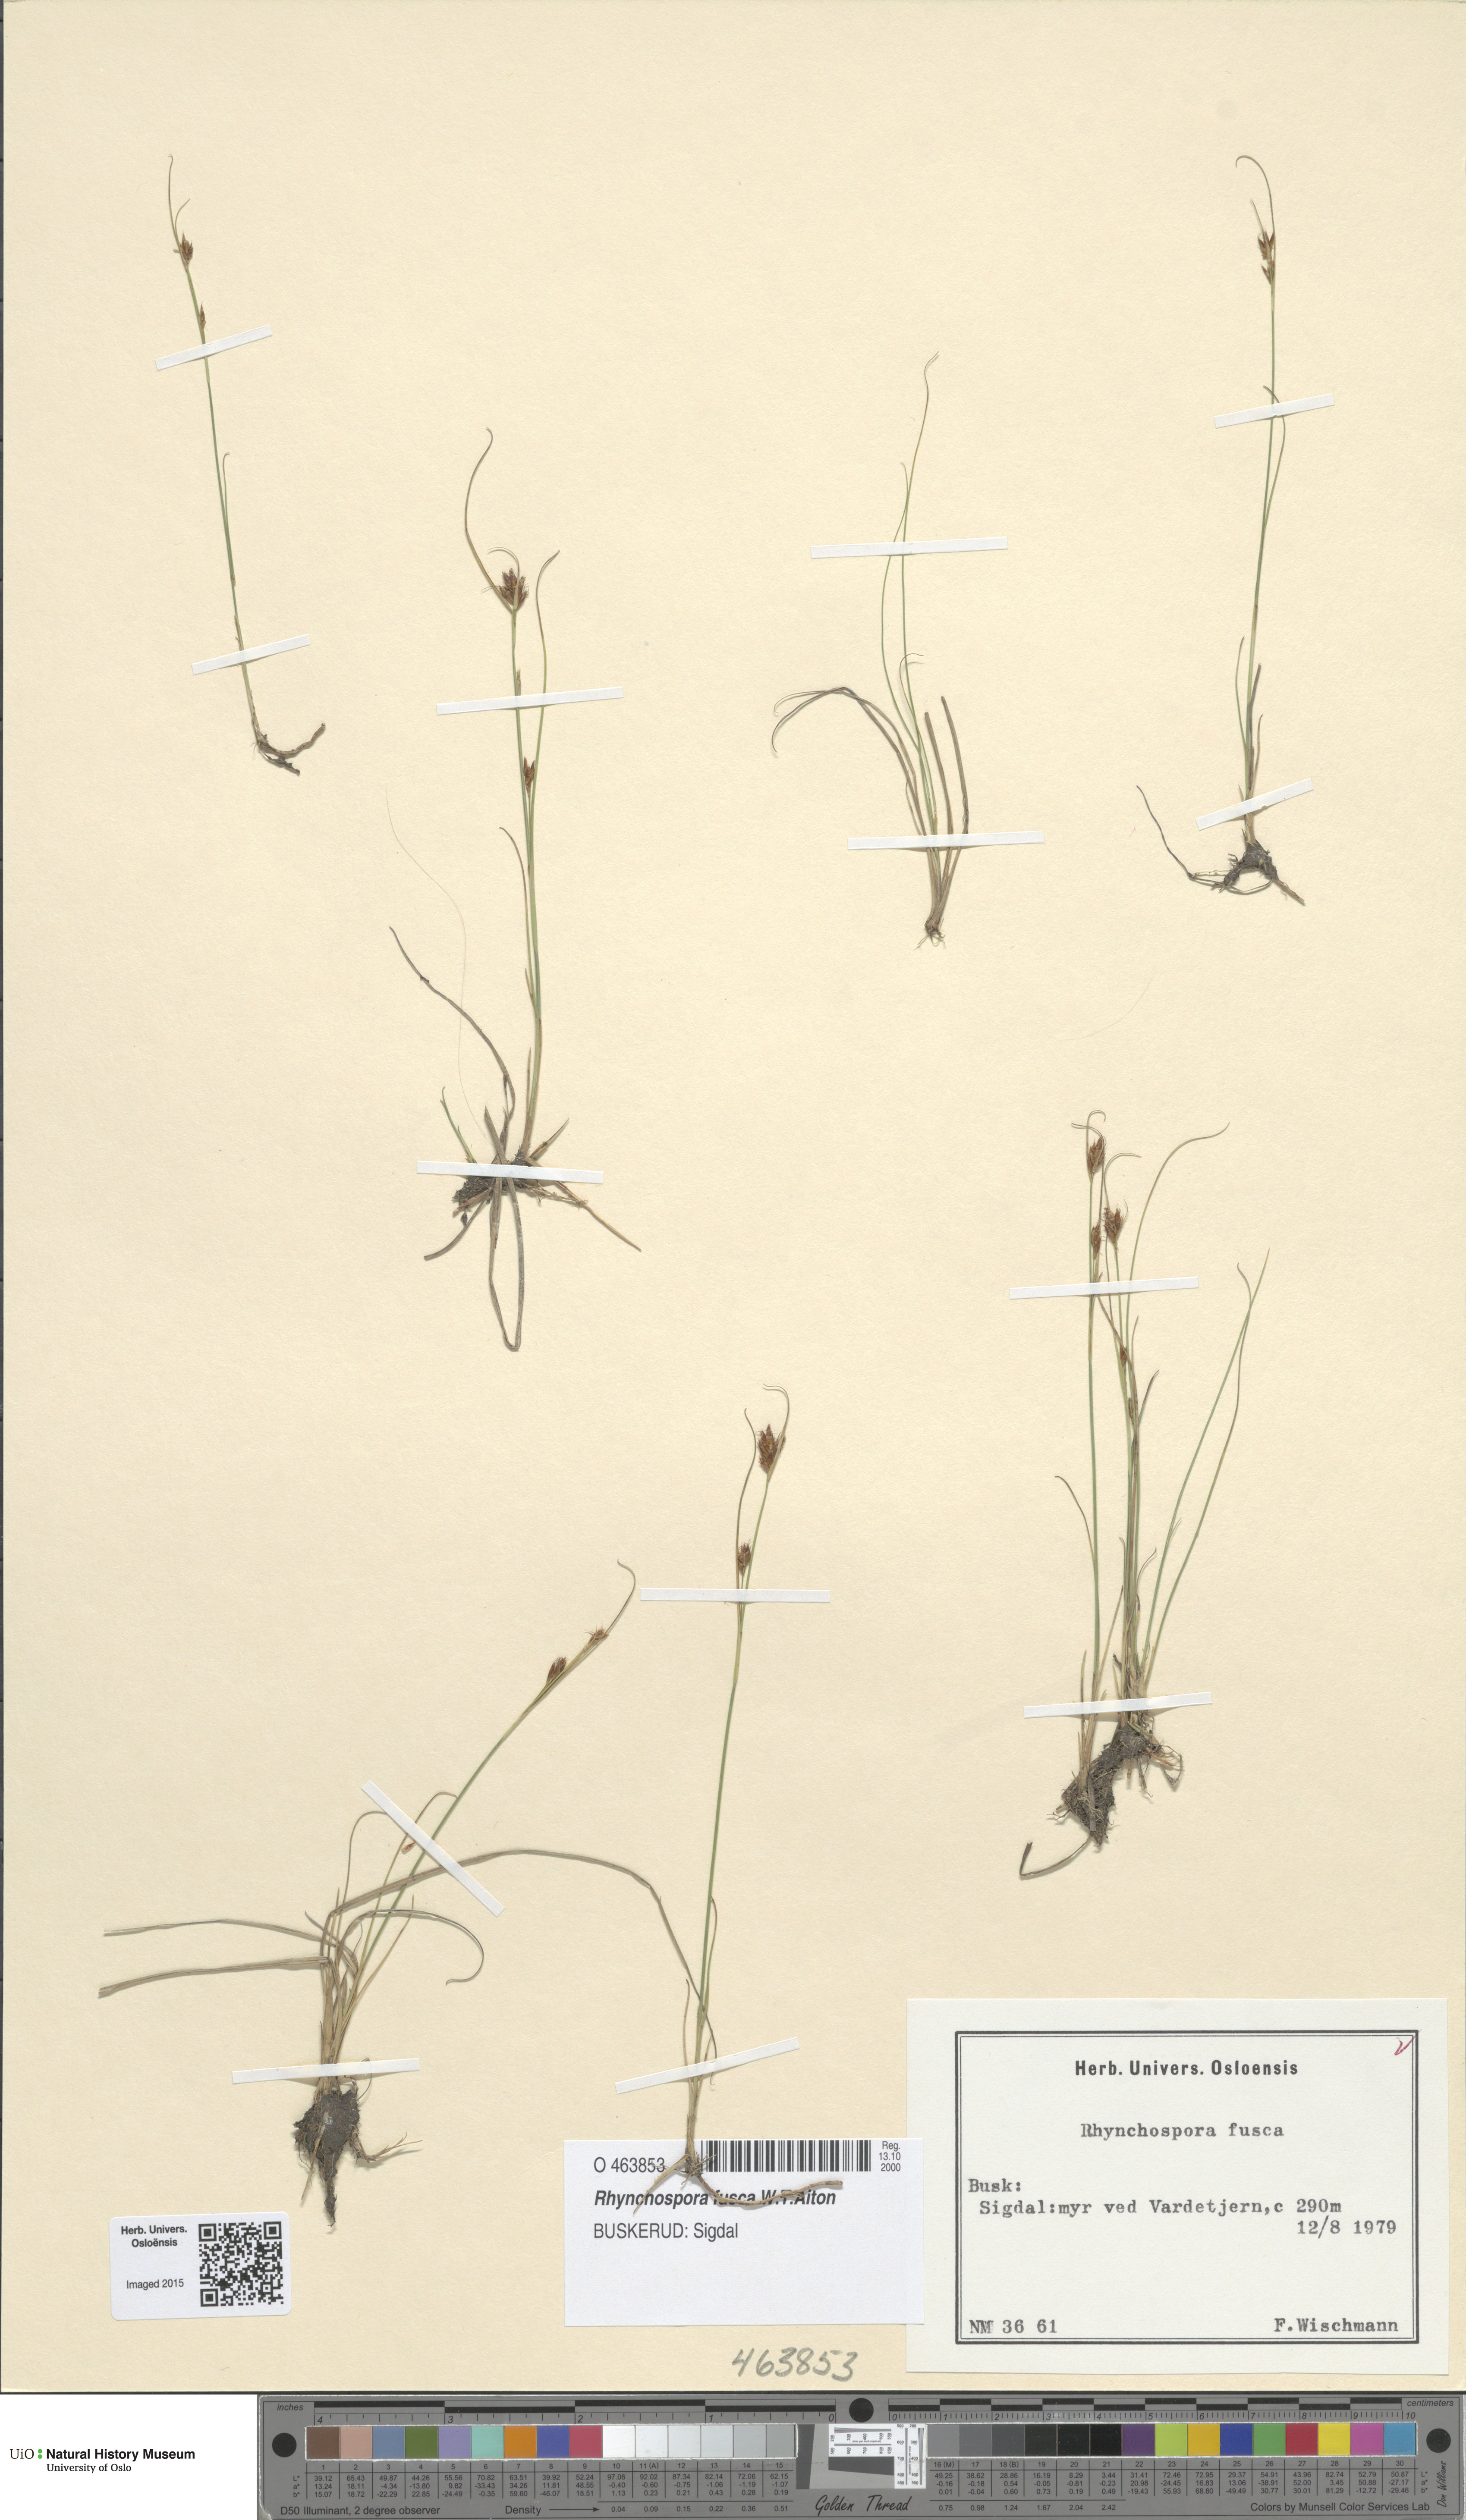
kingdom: Plantae
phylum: Tracheophyta
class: Liliopsida
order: Poales
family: Cyperaceae
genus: Rhynchospora
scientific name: Rhynchospora fusca
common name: Brown beak-sedge
